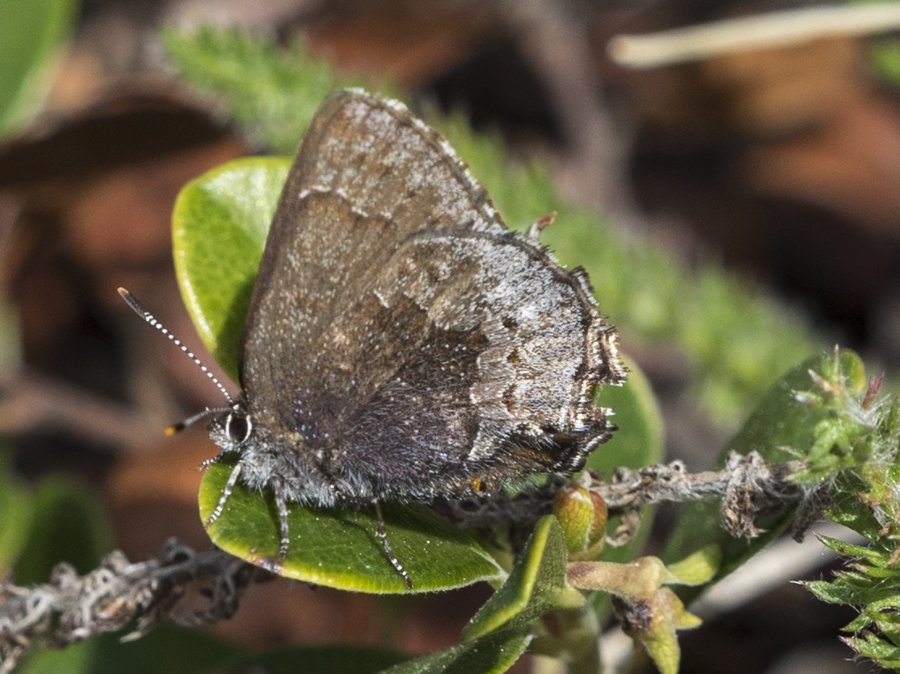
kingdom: Animalia
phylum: Arthropoda
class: Insecta
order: Lepidoptera
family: Lycaenidae
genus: Callophrys
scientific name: Callophrys polios
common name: Hoary Elfin
